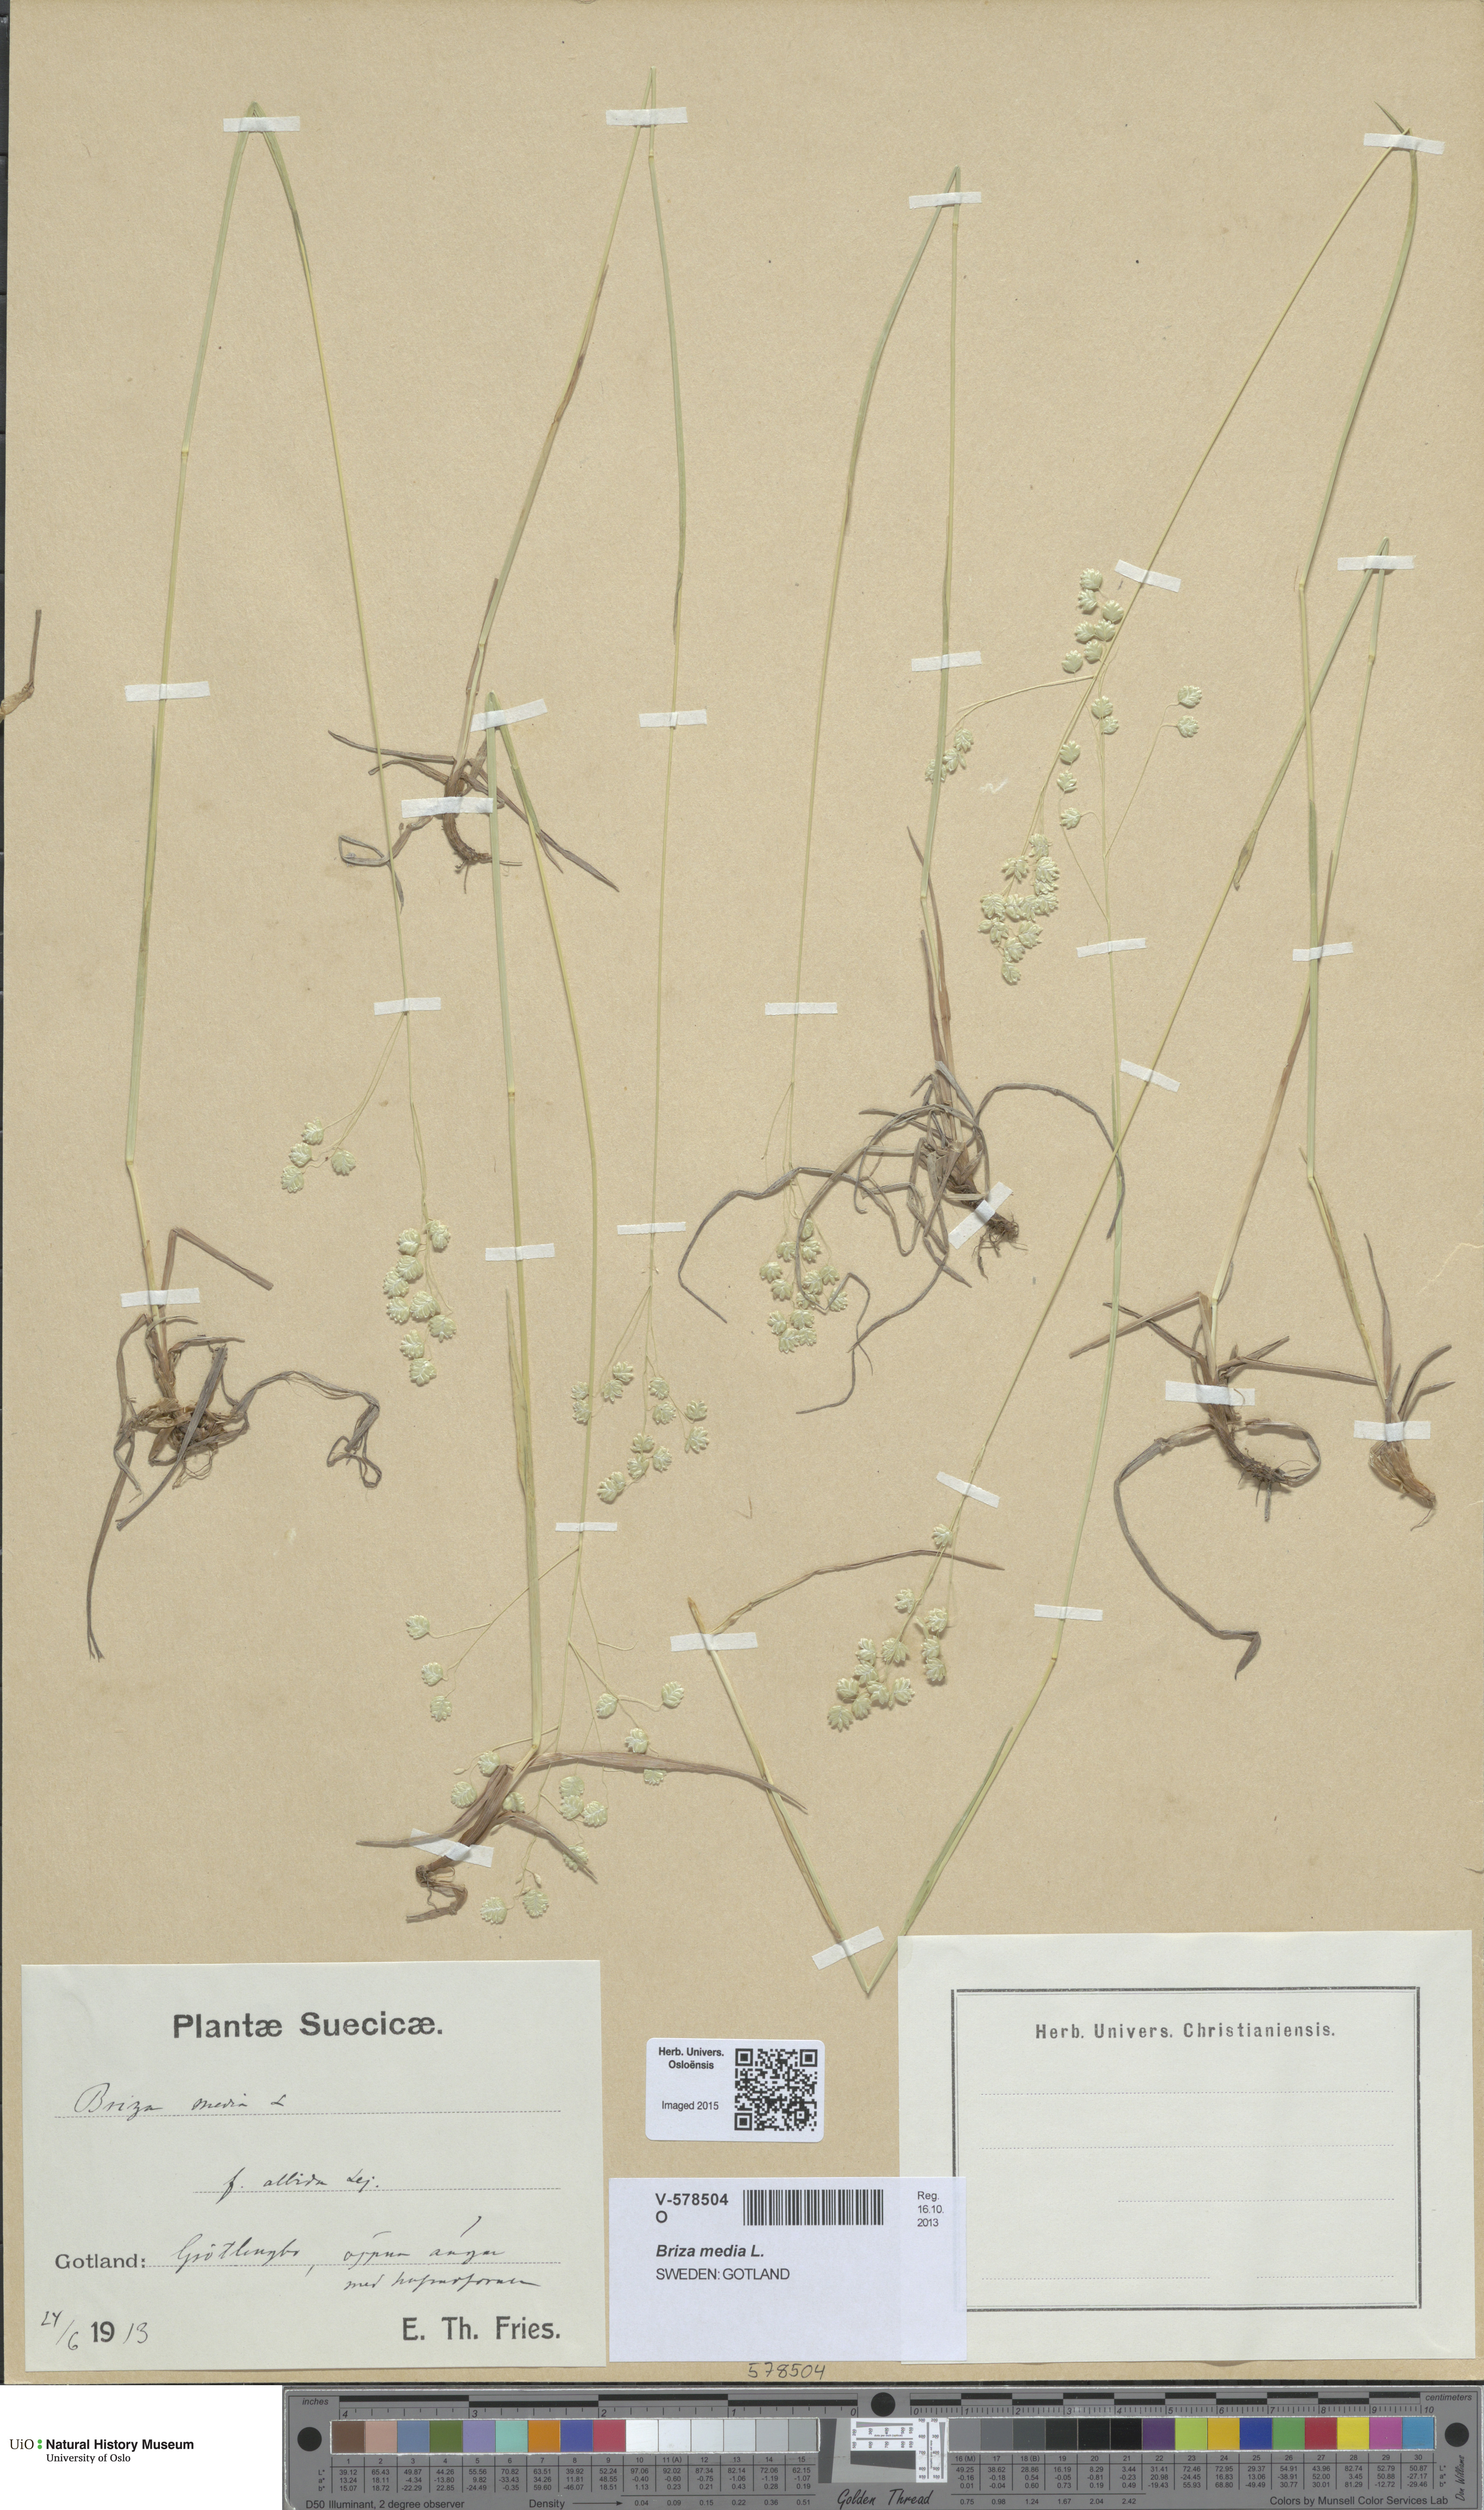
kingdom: Plantae
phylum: Tracheophyta
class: Liliopsida
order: Poales
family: Poaceae
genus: Briza
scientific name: Briza media
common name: Quaking grass
